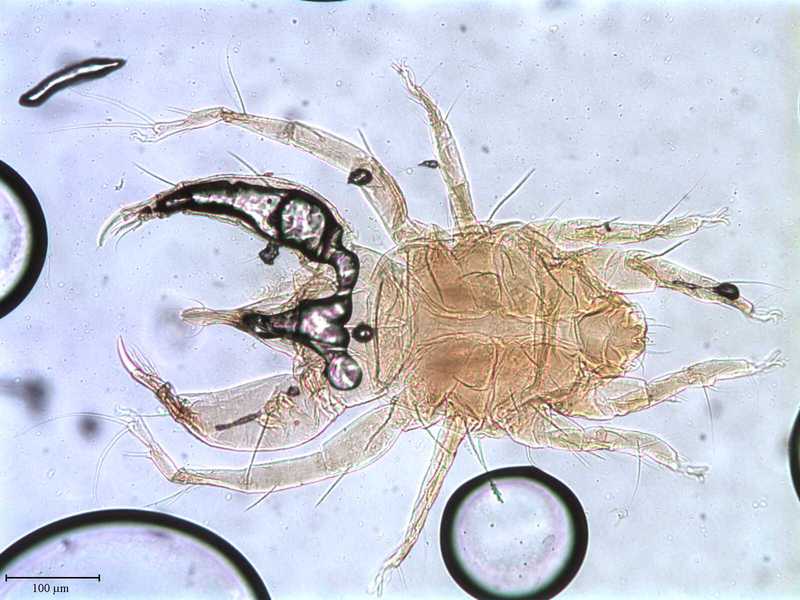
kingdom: Animalia
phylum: Arthropoda
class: Arachnida
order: Trombidiformes
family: Cheyletidae
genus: Cheyletus
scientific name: Cheyletus venator
